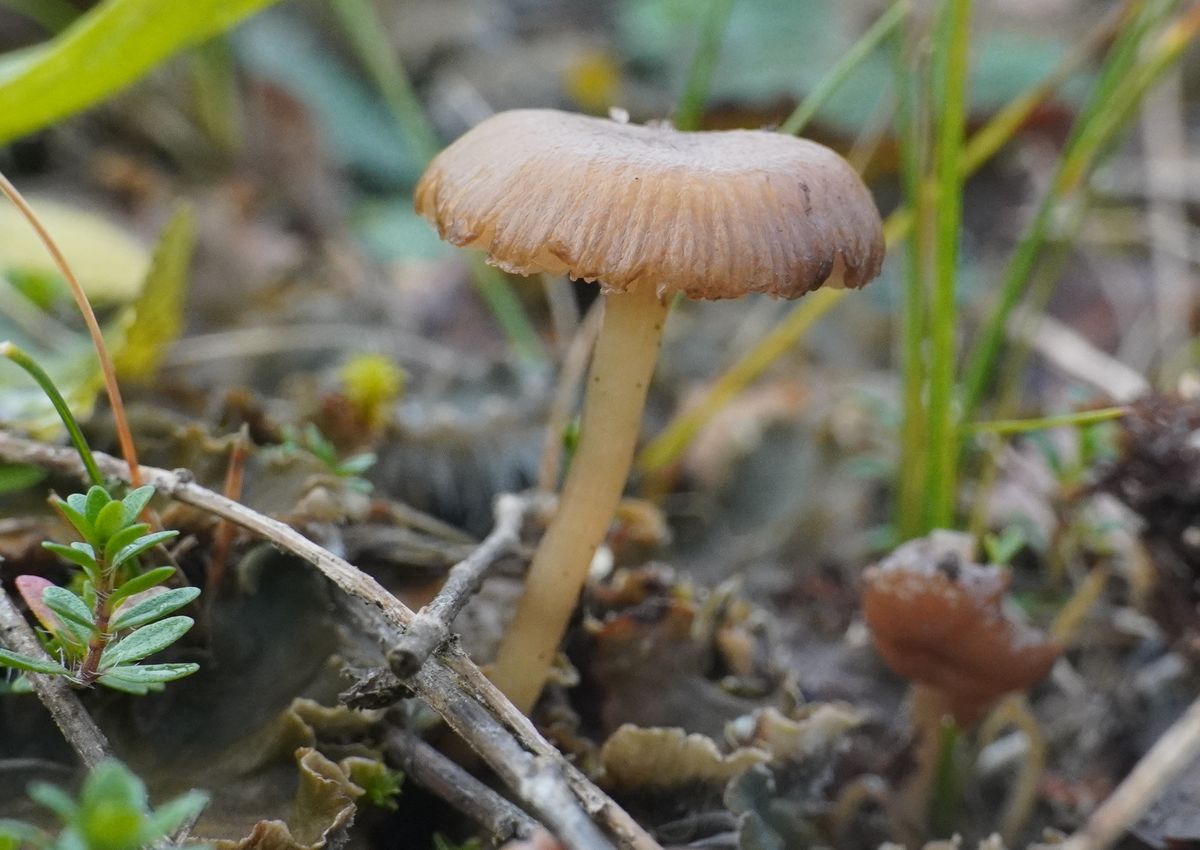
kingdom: Fungi
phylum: Basidiomycota
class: Agaricomycetes
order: Agaricales
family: Tricholomataceae
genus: Gamundia
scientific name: Gamundia xerophila
